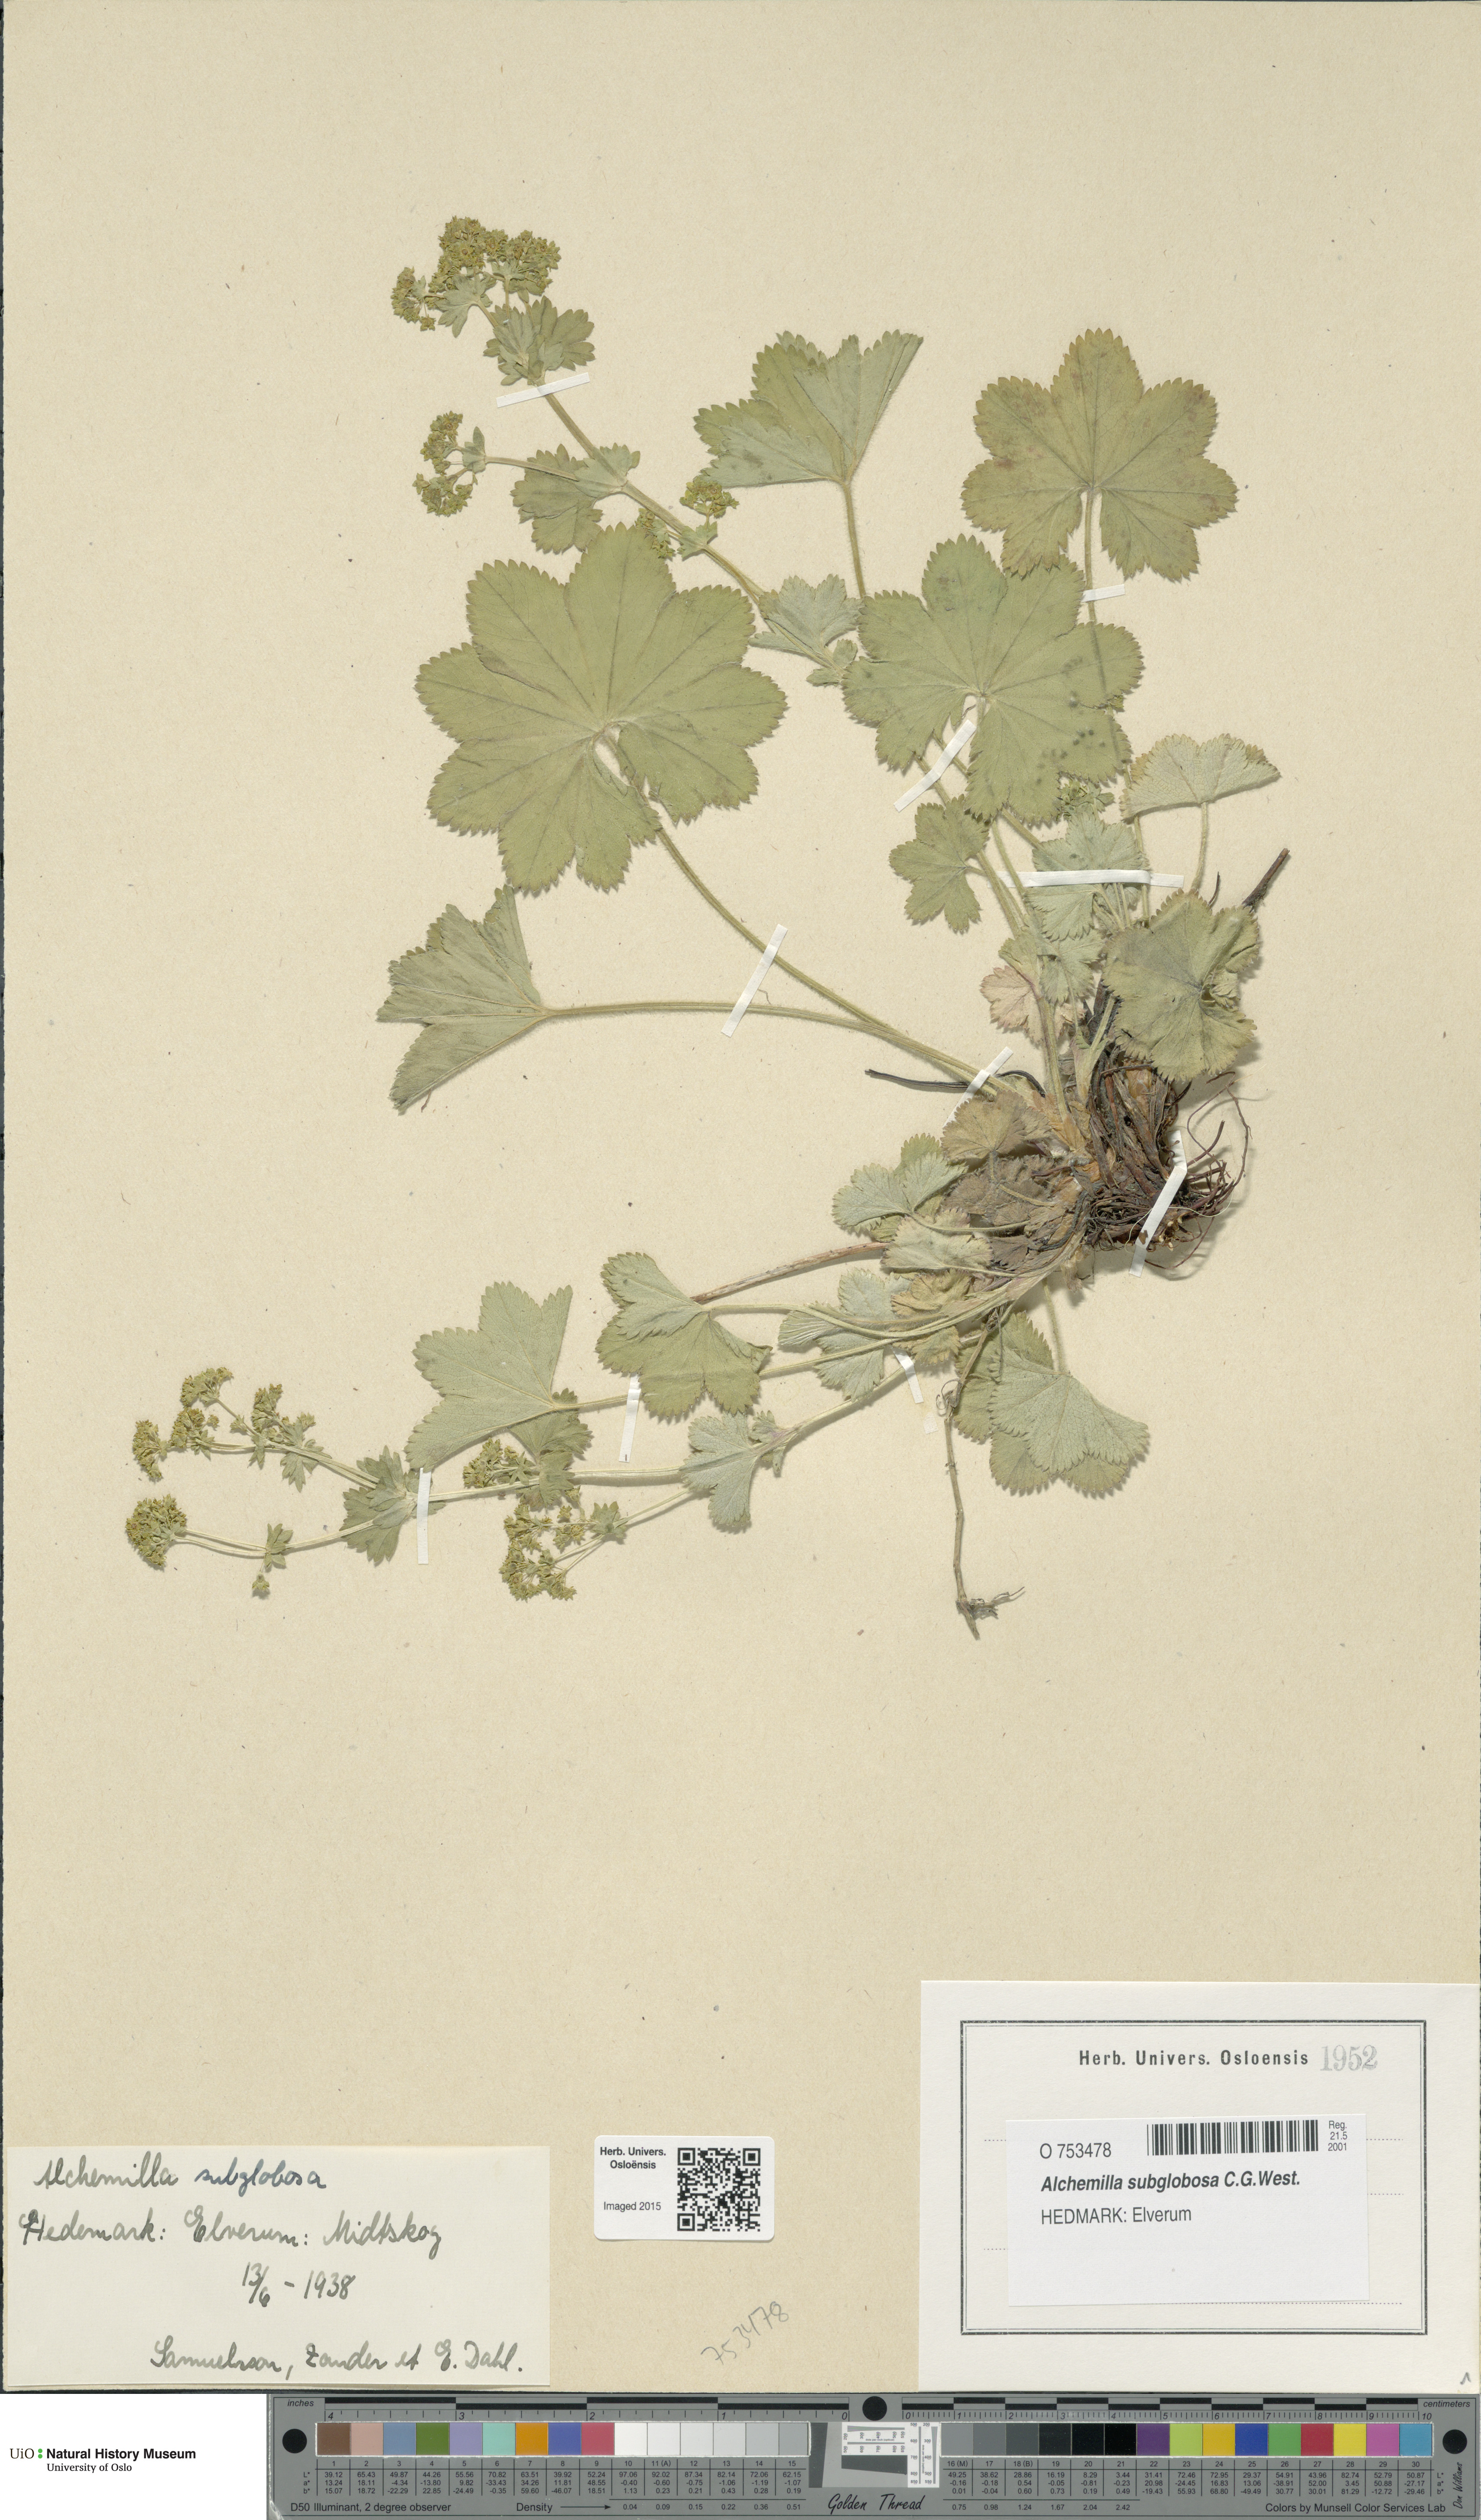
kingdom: Plantae
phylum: Tracheophyta
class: Magnoliopsida
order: Rosales
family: Rosaceae
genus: Alchemilla
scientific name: Alchemilla subglobosa
